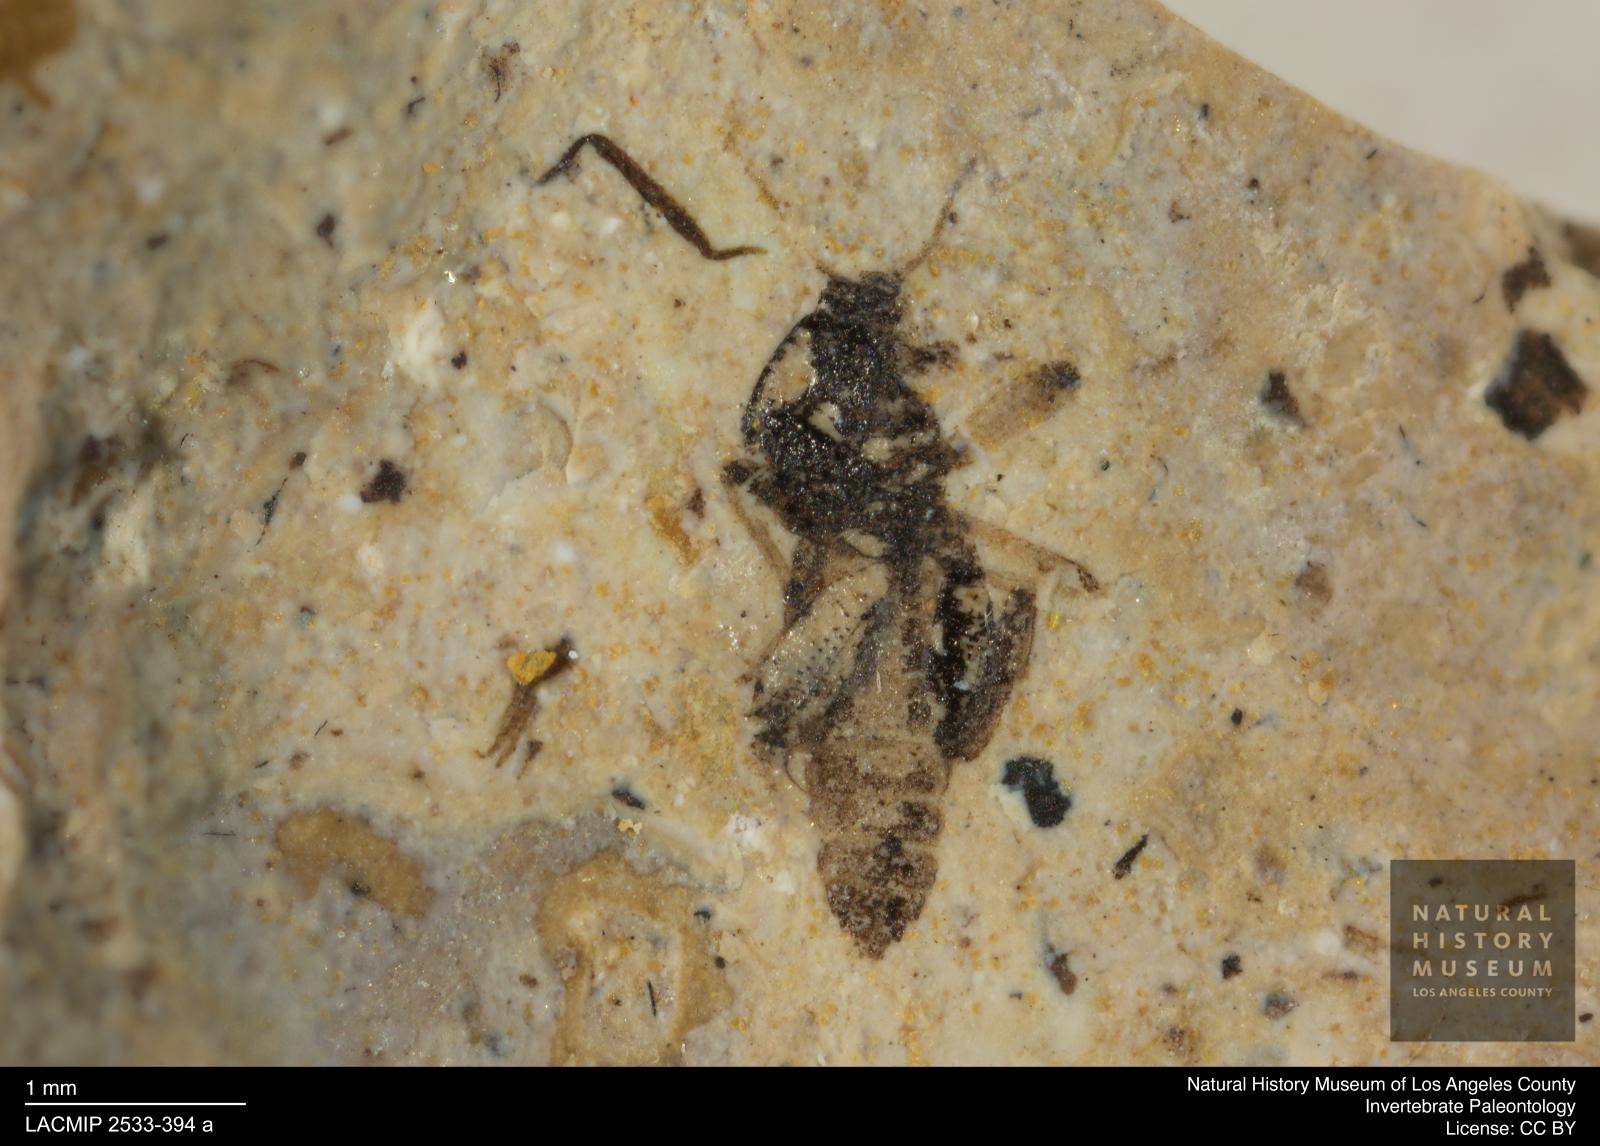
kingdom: Animalia
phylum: Arthropoda
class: Insecta
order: Diptera
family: Ceratopogonidae
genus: Serromyia
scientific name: Serromyia alphea
